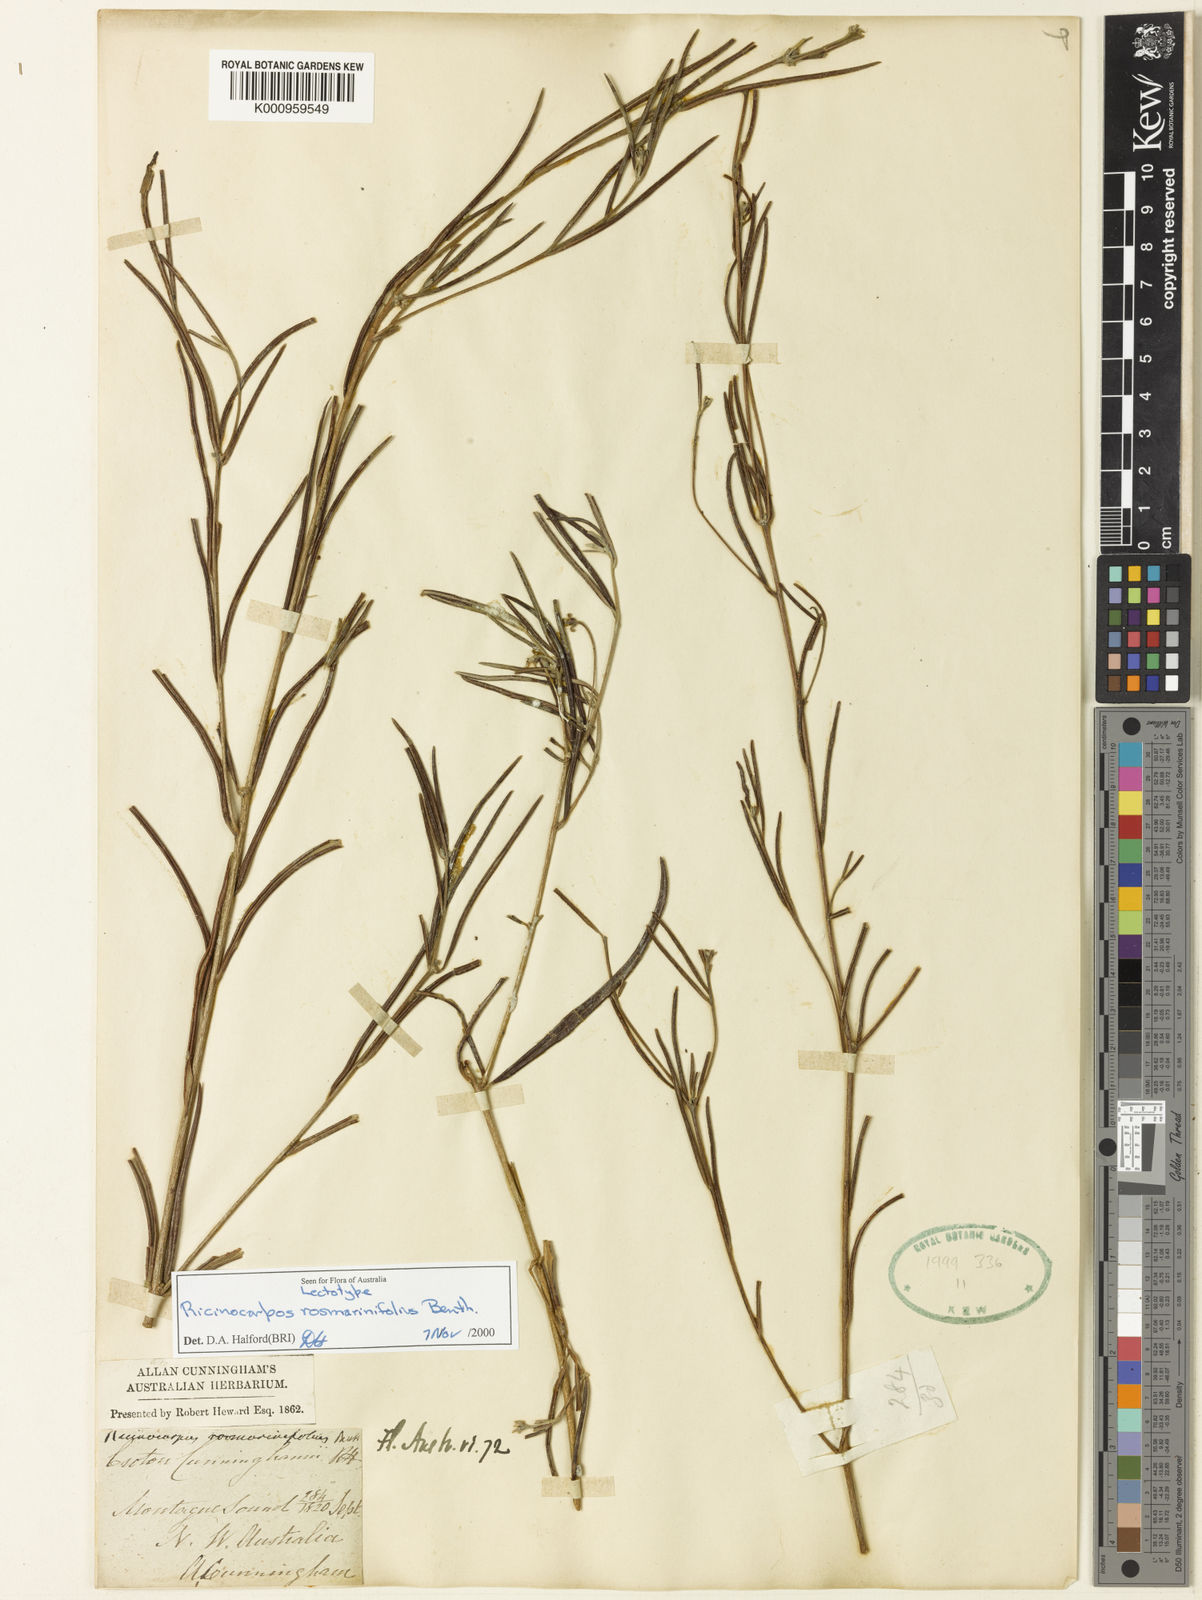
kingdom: Plantae
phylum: Tracheophyta
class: Magnoliopsida
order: Malpighiales
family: Euphorbiaceae
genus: Ricinocarpos
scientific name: Ricinocarpos rosmarinifolius
